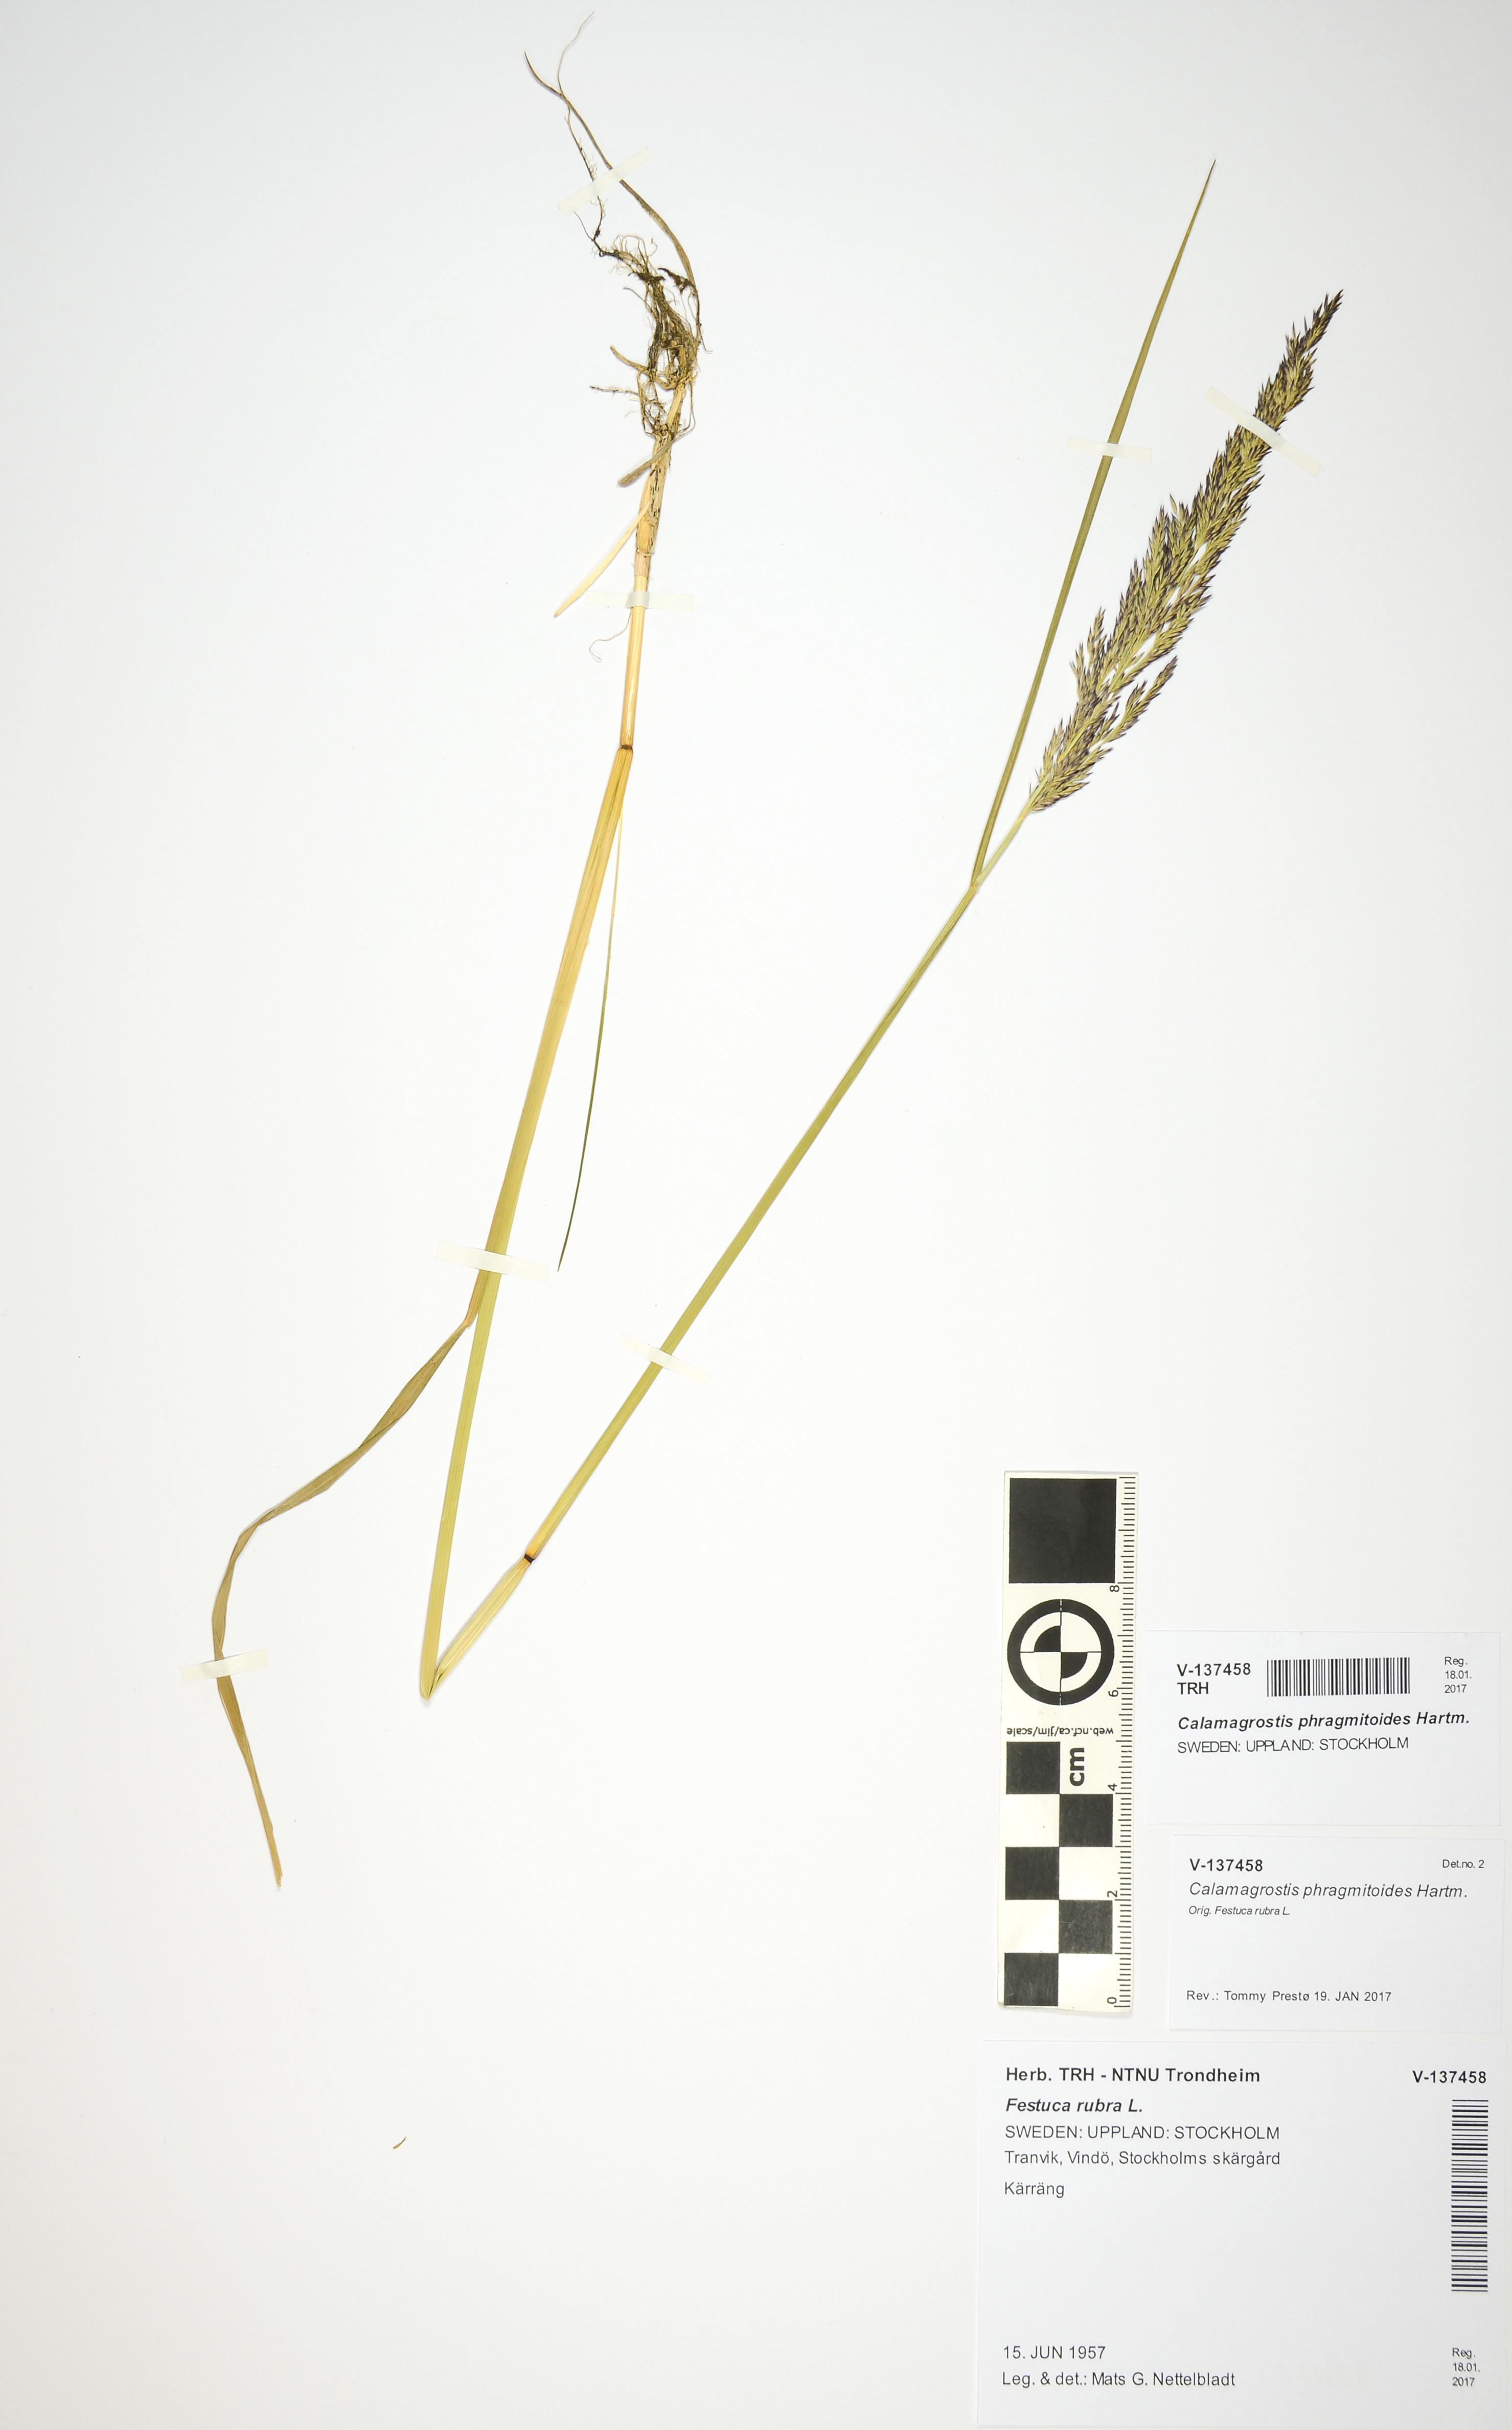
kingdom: Plantae
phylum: Tracheophyta
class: Liliopsida
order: Poales
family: Poaceae
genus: Calamagrostis
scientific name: Calamagrostis purpurea
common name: Scandinavian small-reed
